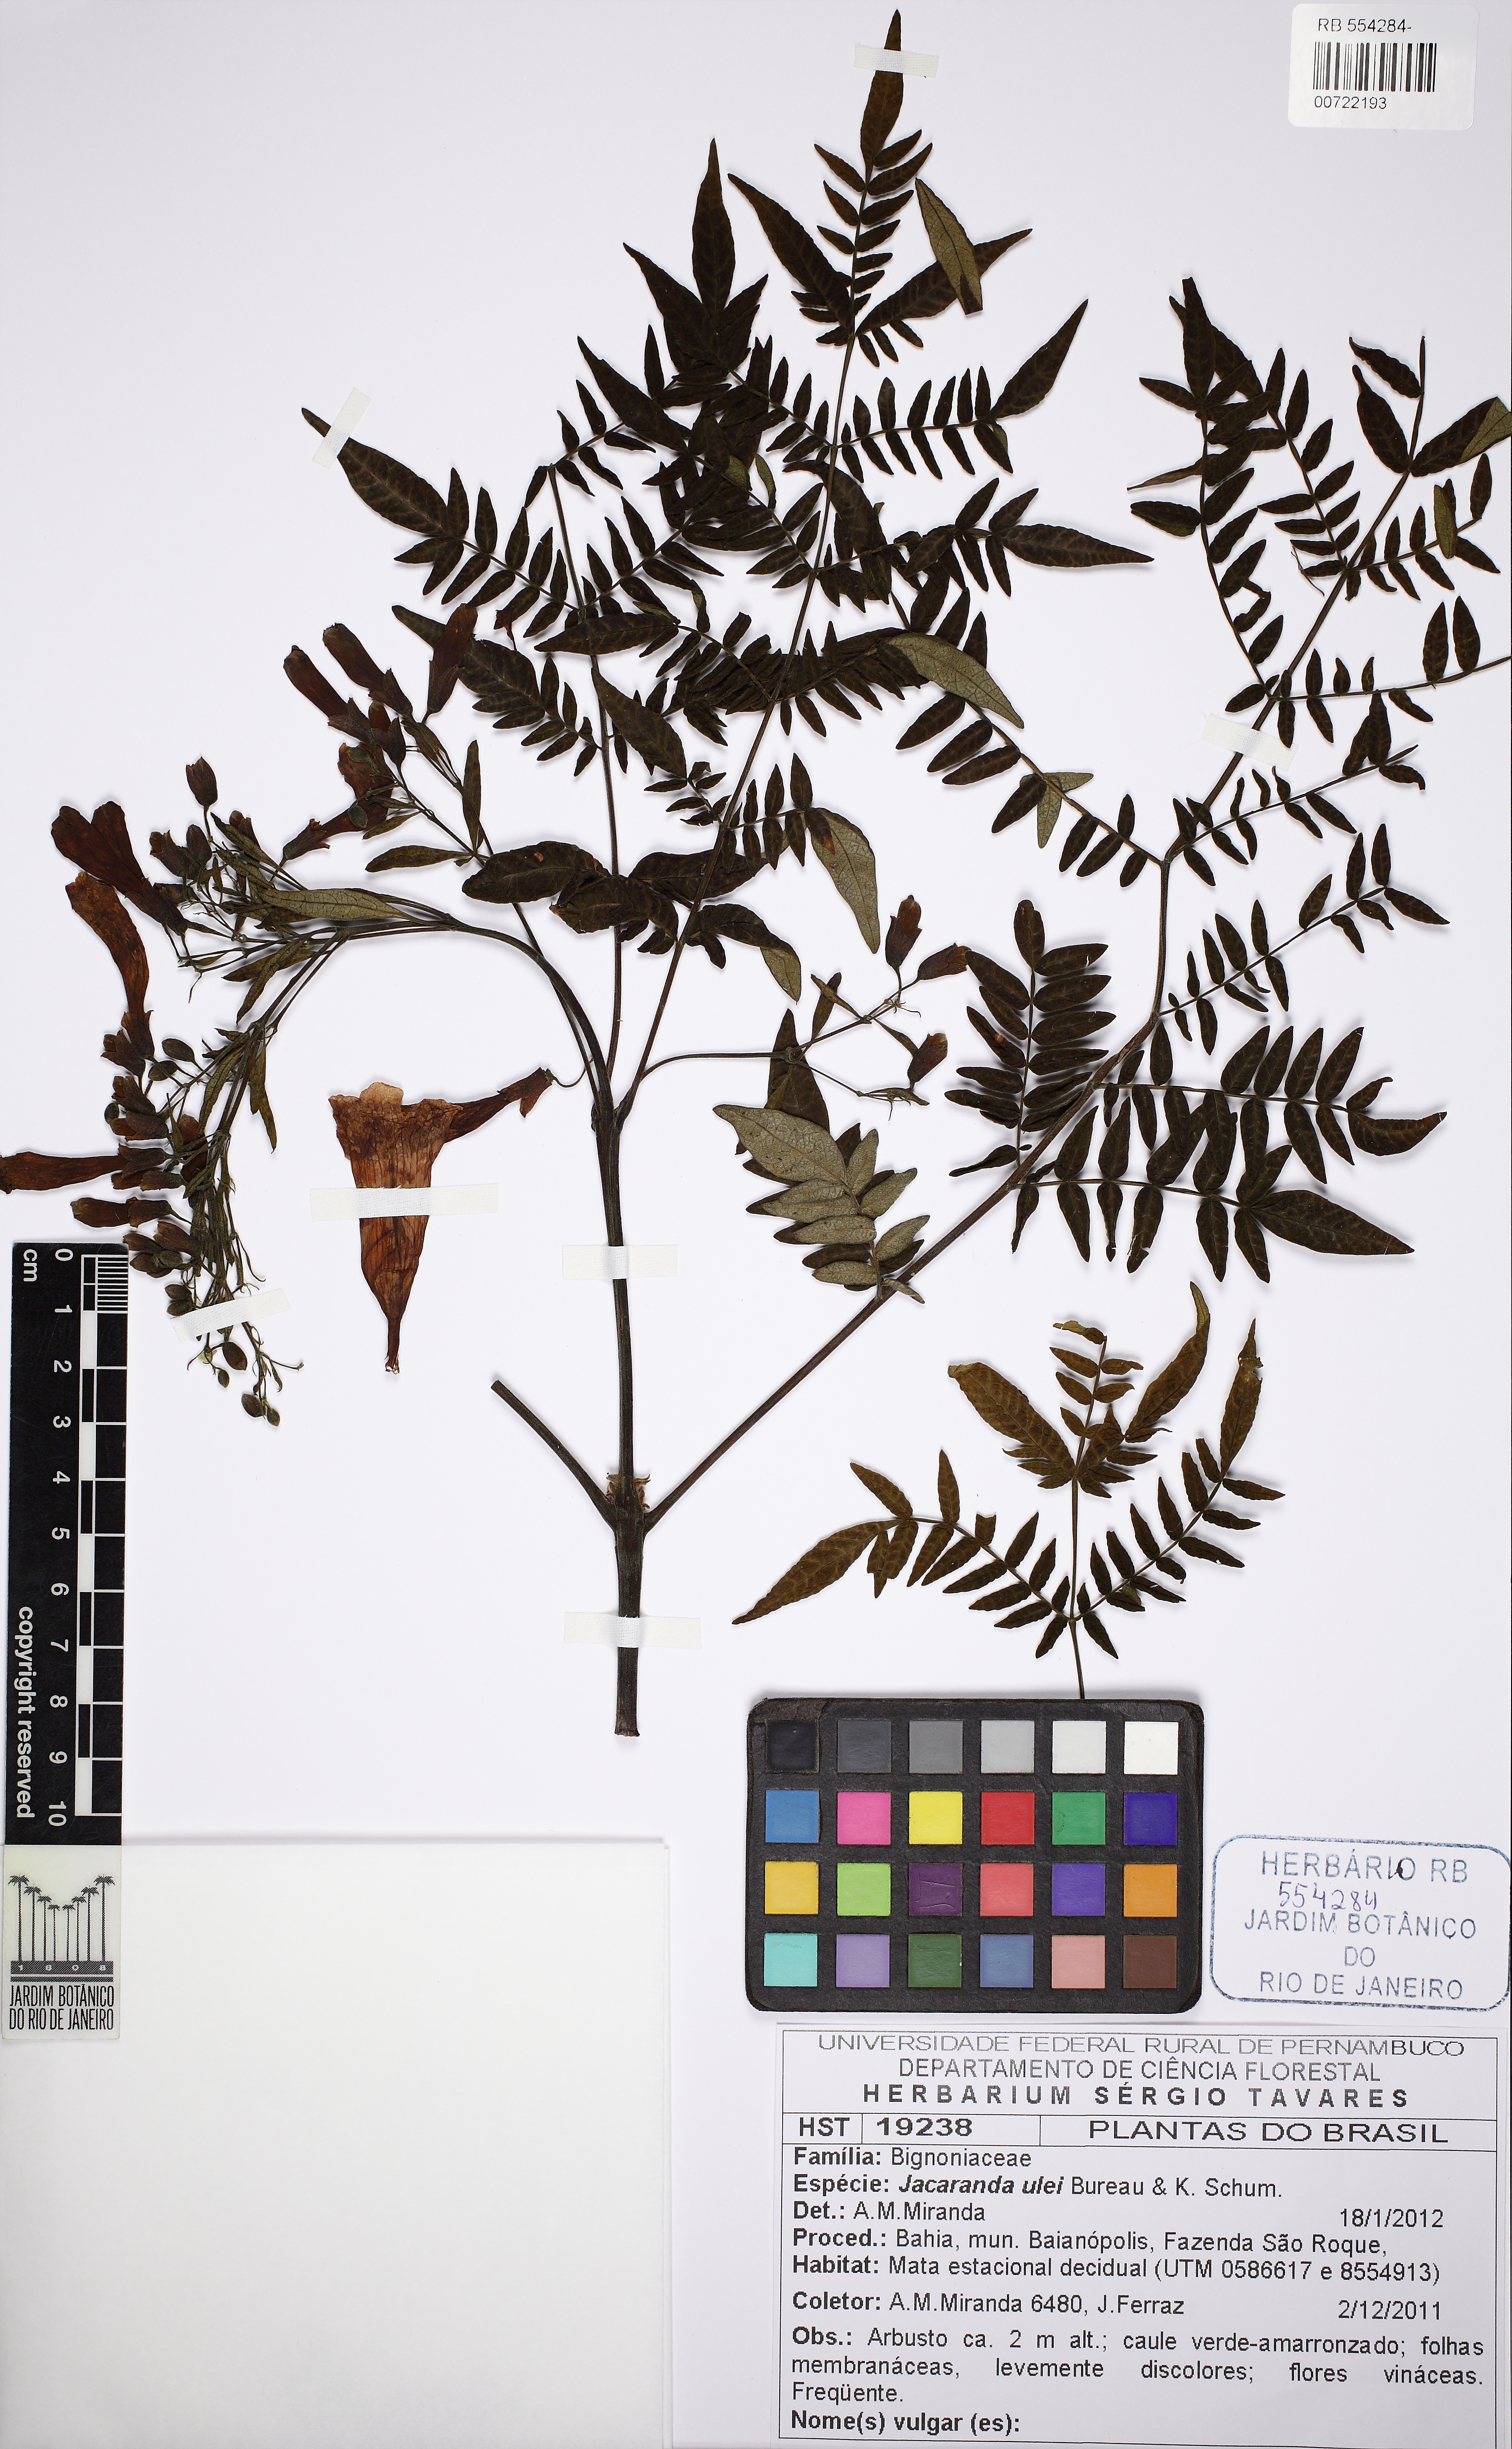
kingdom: Plantae
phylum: Tracheophyta
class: Magnoliopsida
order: Lamiales
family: Bignoniaceae
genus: Jacaranda
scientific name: Jacaranda ulei
